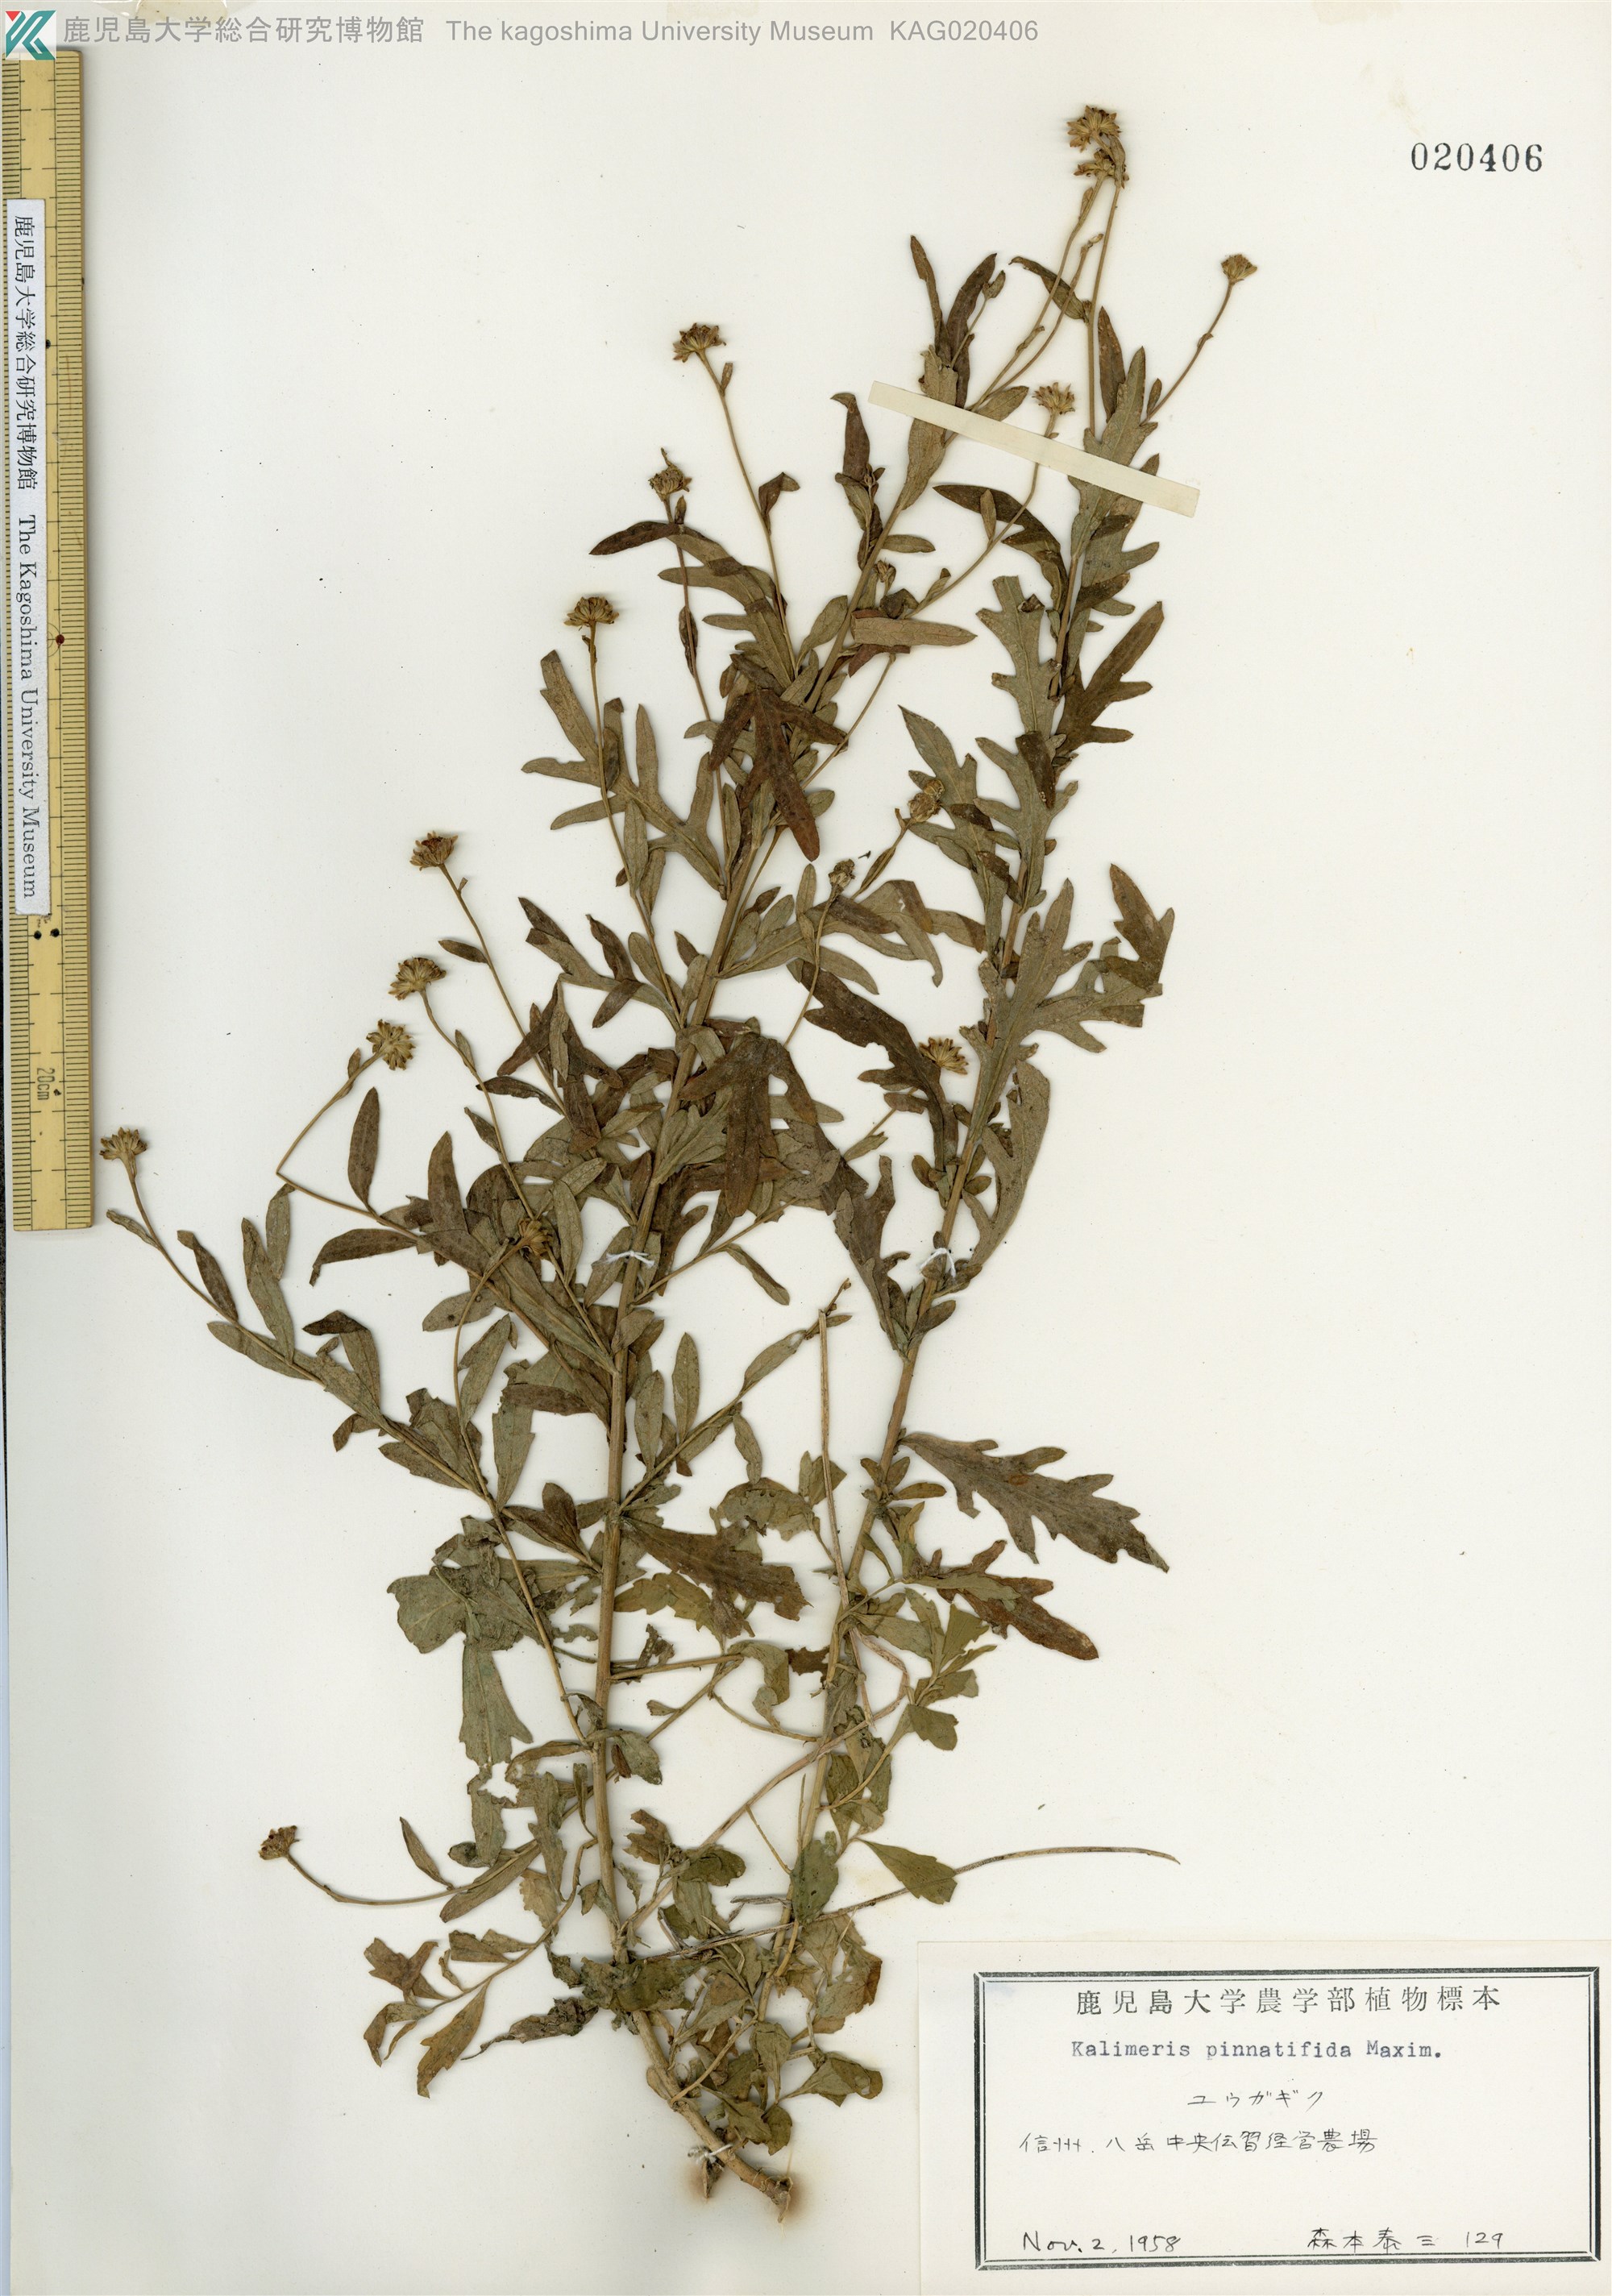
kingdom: Plantae
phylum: Tracheophyta
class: Magnoliopsida
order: Asterales
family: Asteraceae
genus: Kalimeris
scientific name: Kalimeris pinnatifida
